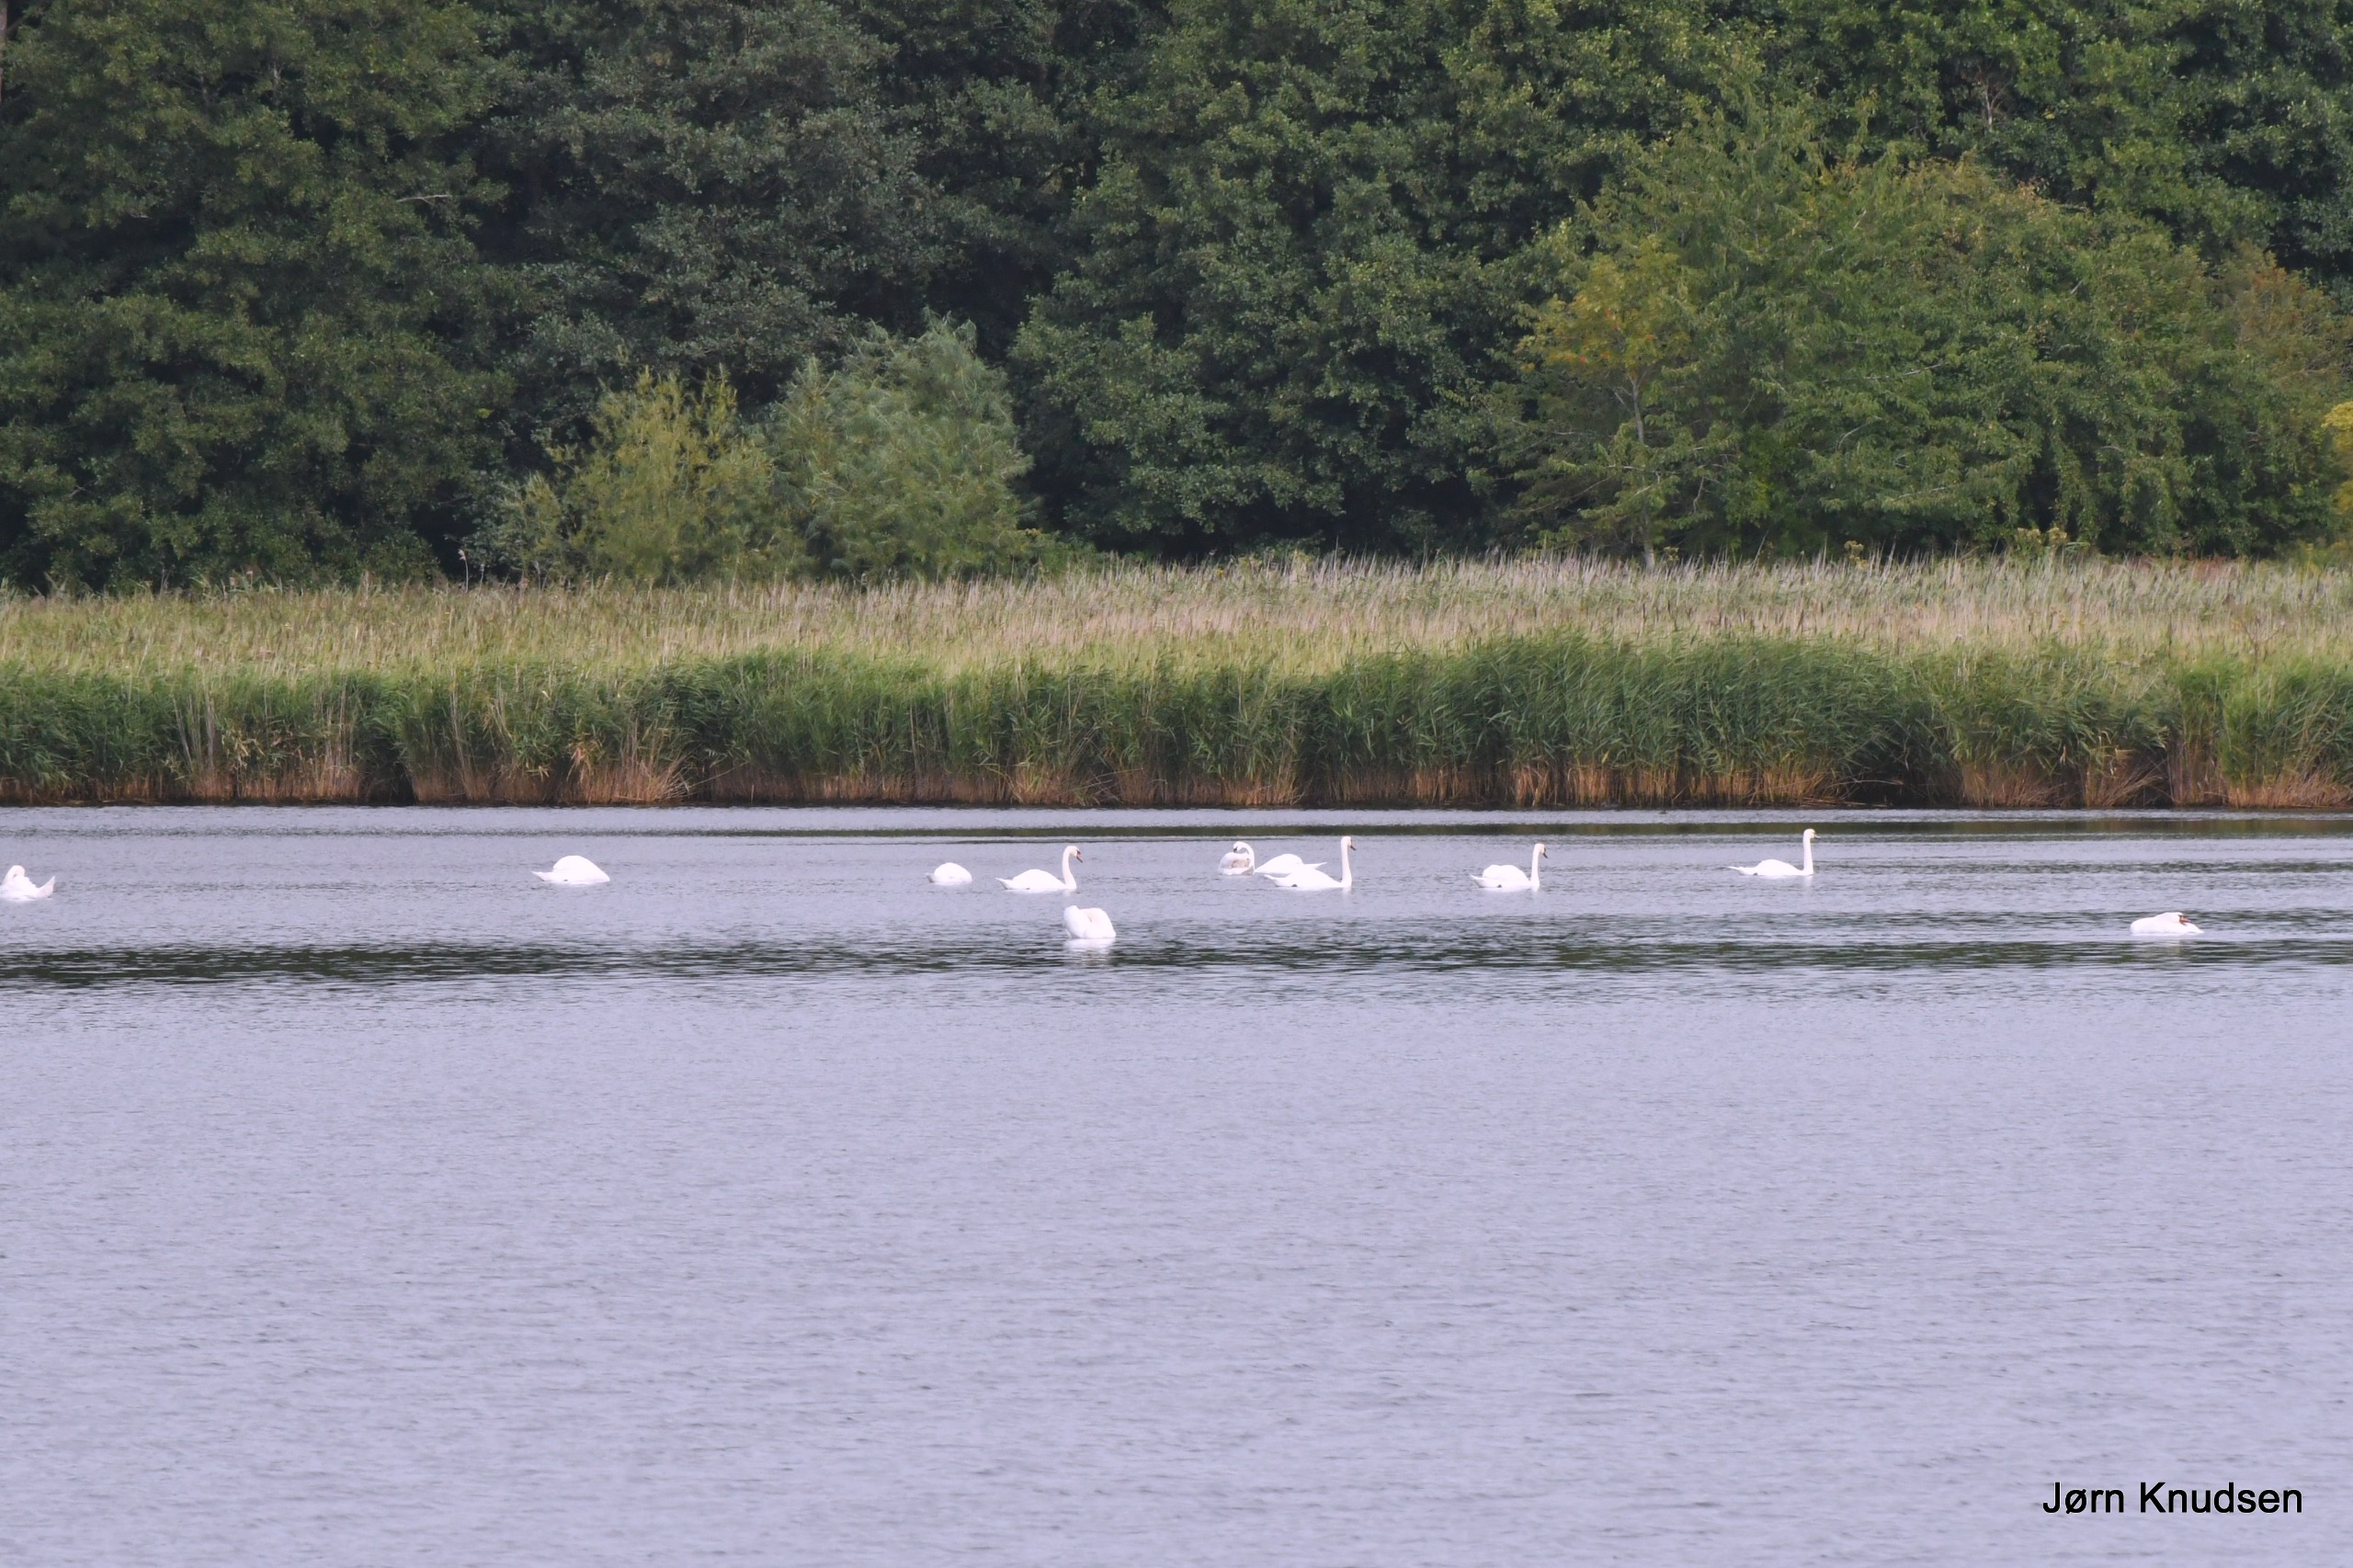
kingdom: Animalia
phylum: Chordata
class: Aves
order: Anseriformes
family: Anatidae
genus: Cygnus
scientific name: Cygnus olor
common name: Knopsvane
